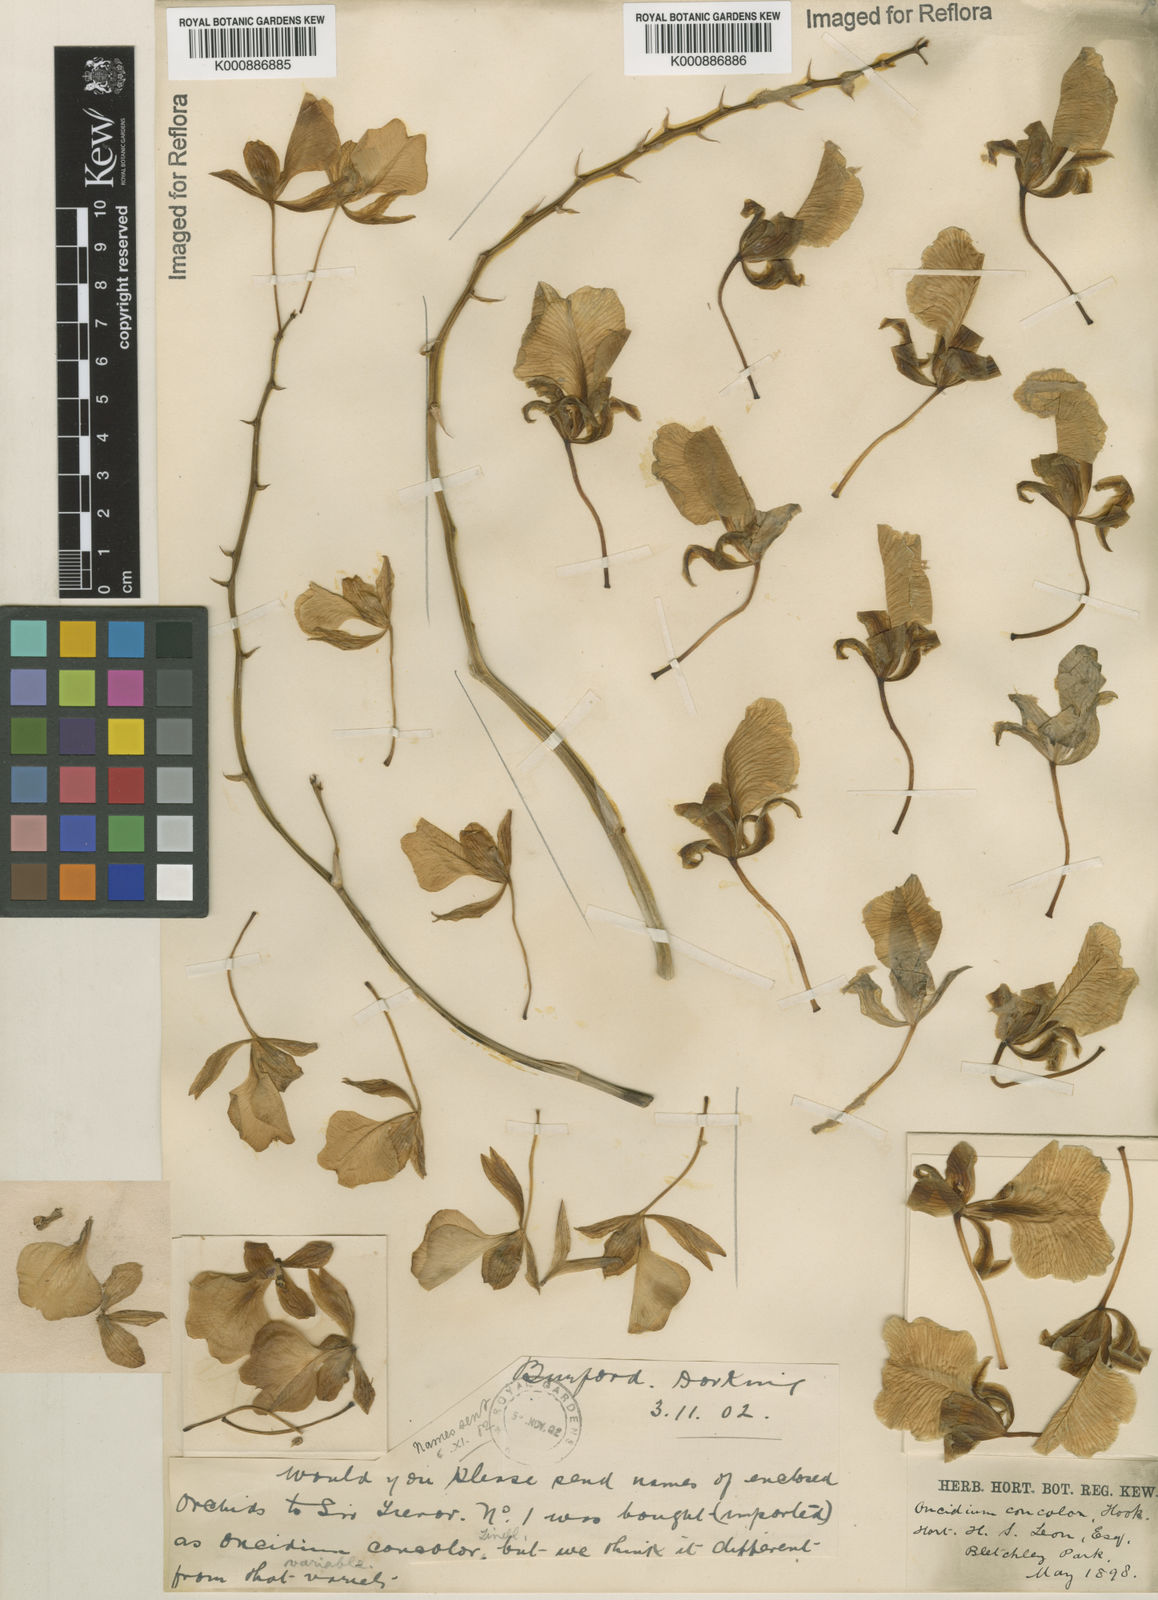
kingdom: Plantae
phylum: Tracheophyta
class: Liliopsida
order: Asparagales
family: Orchidaceae
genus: Gomesa
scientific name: Gomesa concolor
